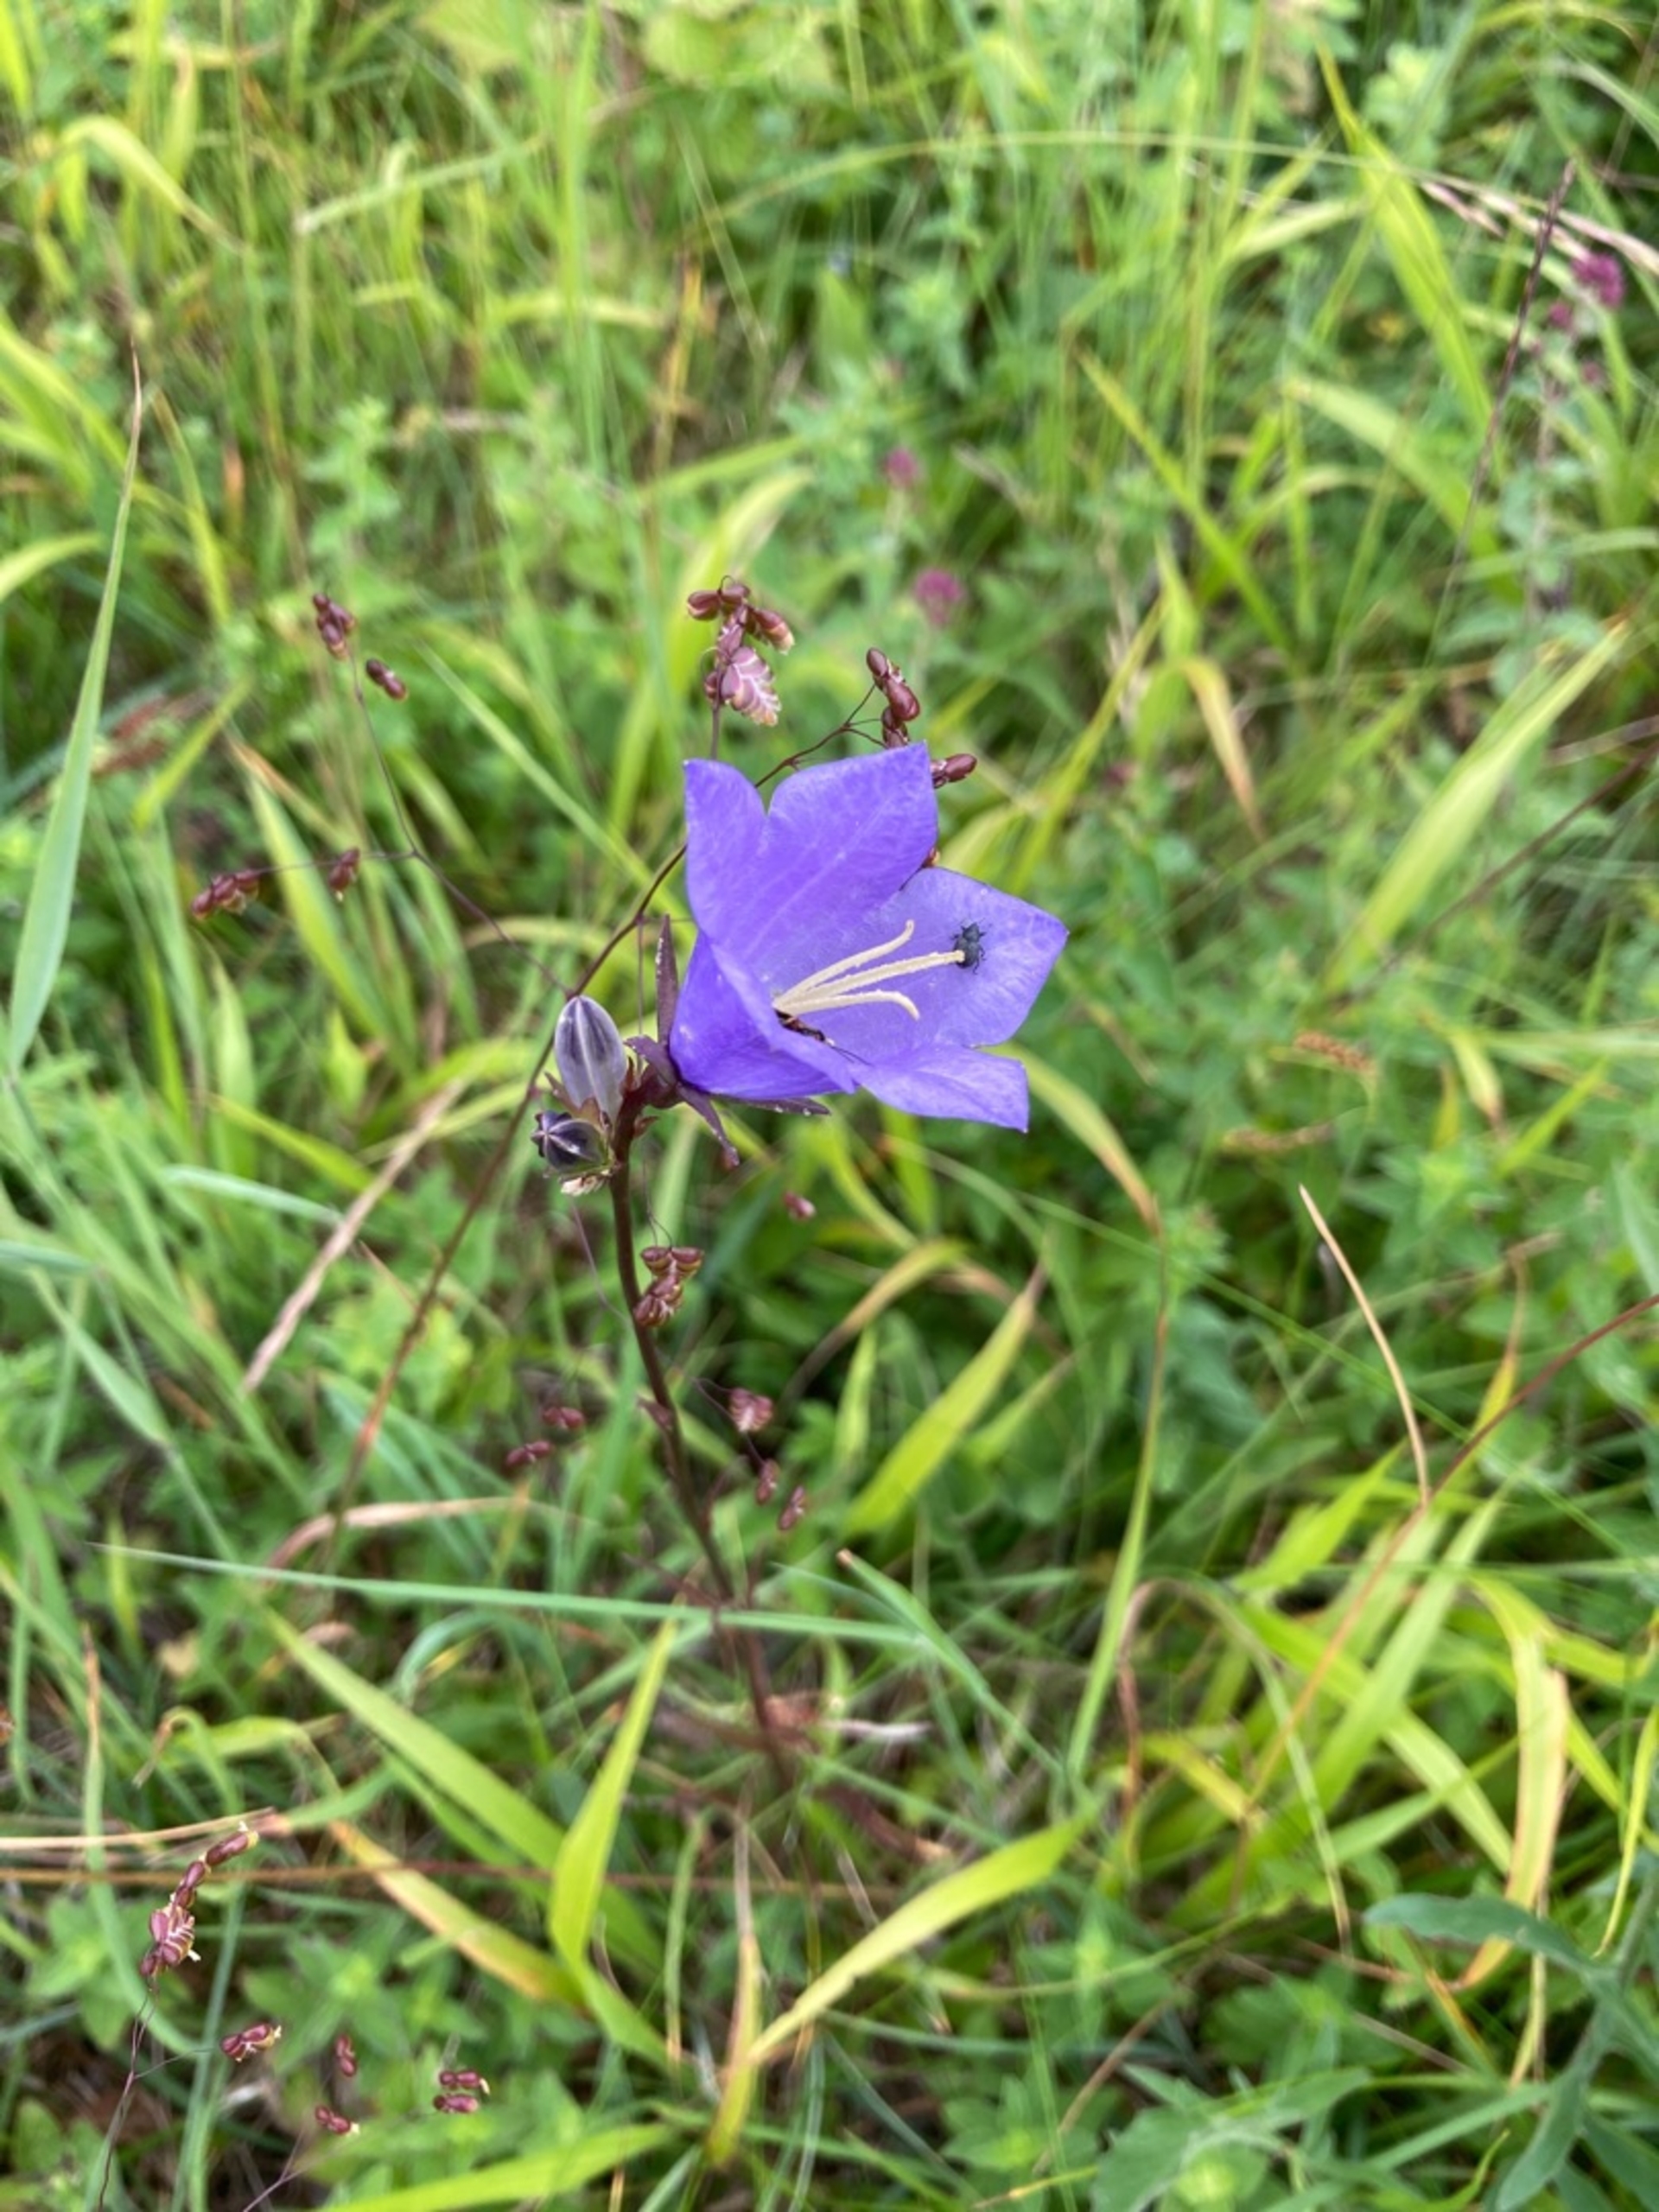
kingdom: Plantae
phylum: Tracheophyta
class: Magnoliopsida
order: Asterales
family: Campanulaceae
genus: Campanula
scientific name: Campanula persicifolia
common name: Smalbladet klokke
